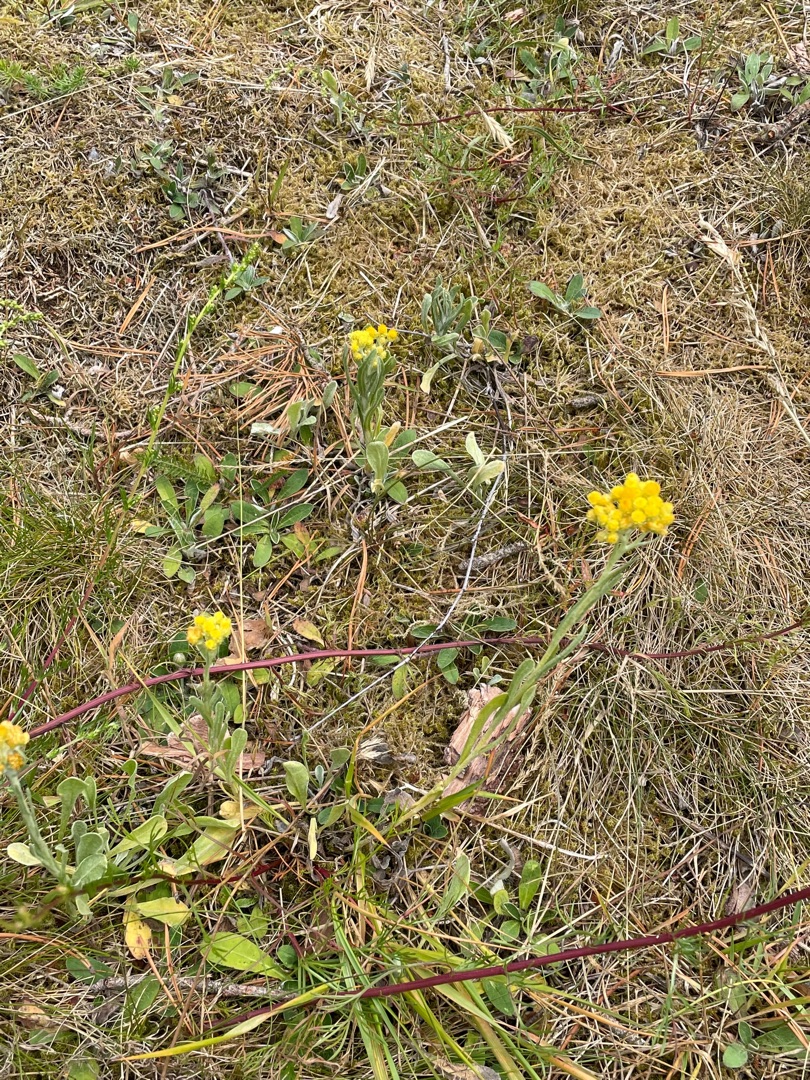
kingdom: Plantae
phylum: Tracheophyta
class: Magnoliopsida
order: Asterales
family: Asteraceae
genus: Helichrysum
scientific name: Helichrysum arenarium
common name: Gul evighedsblomst
